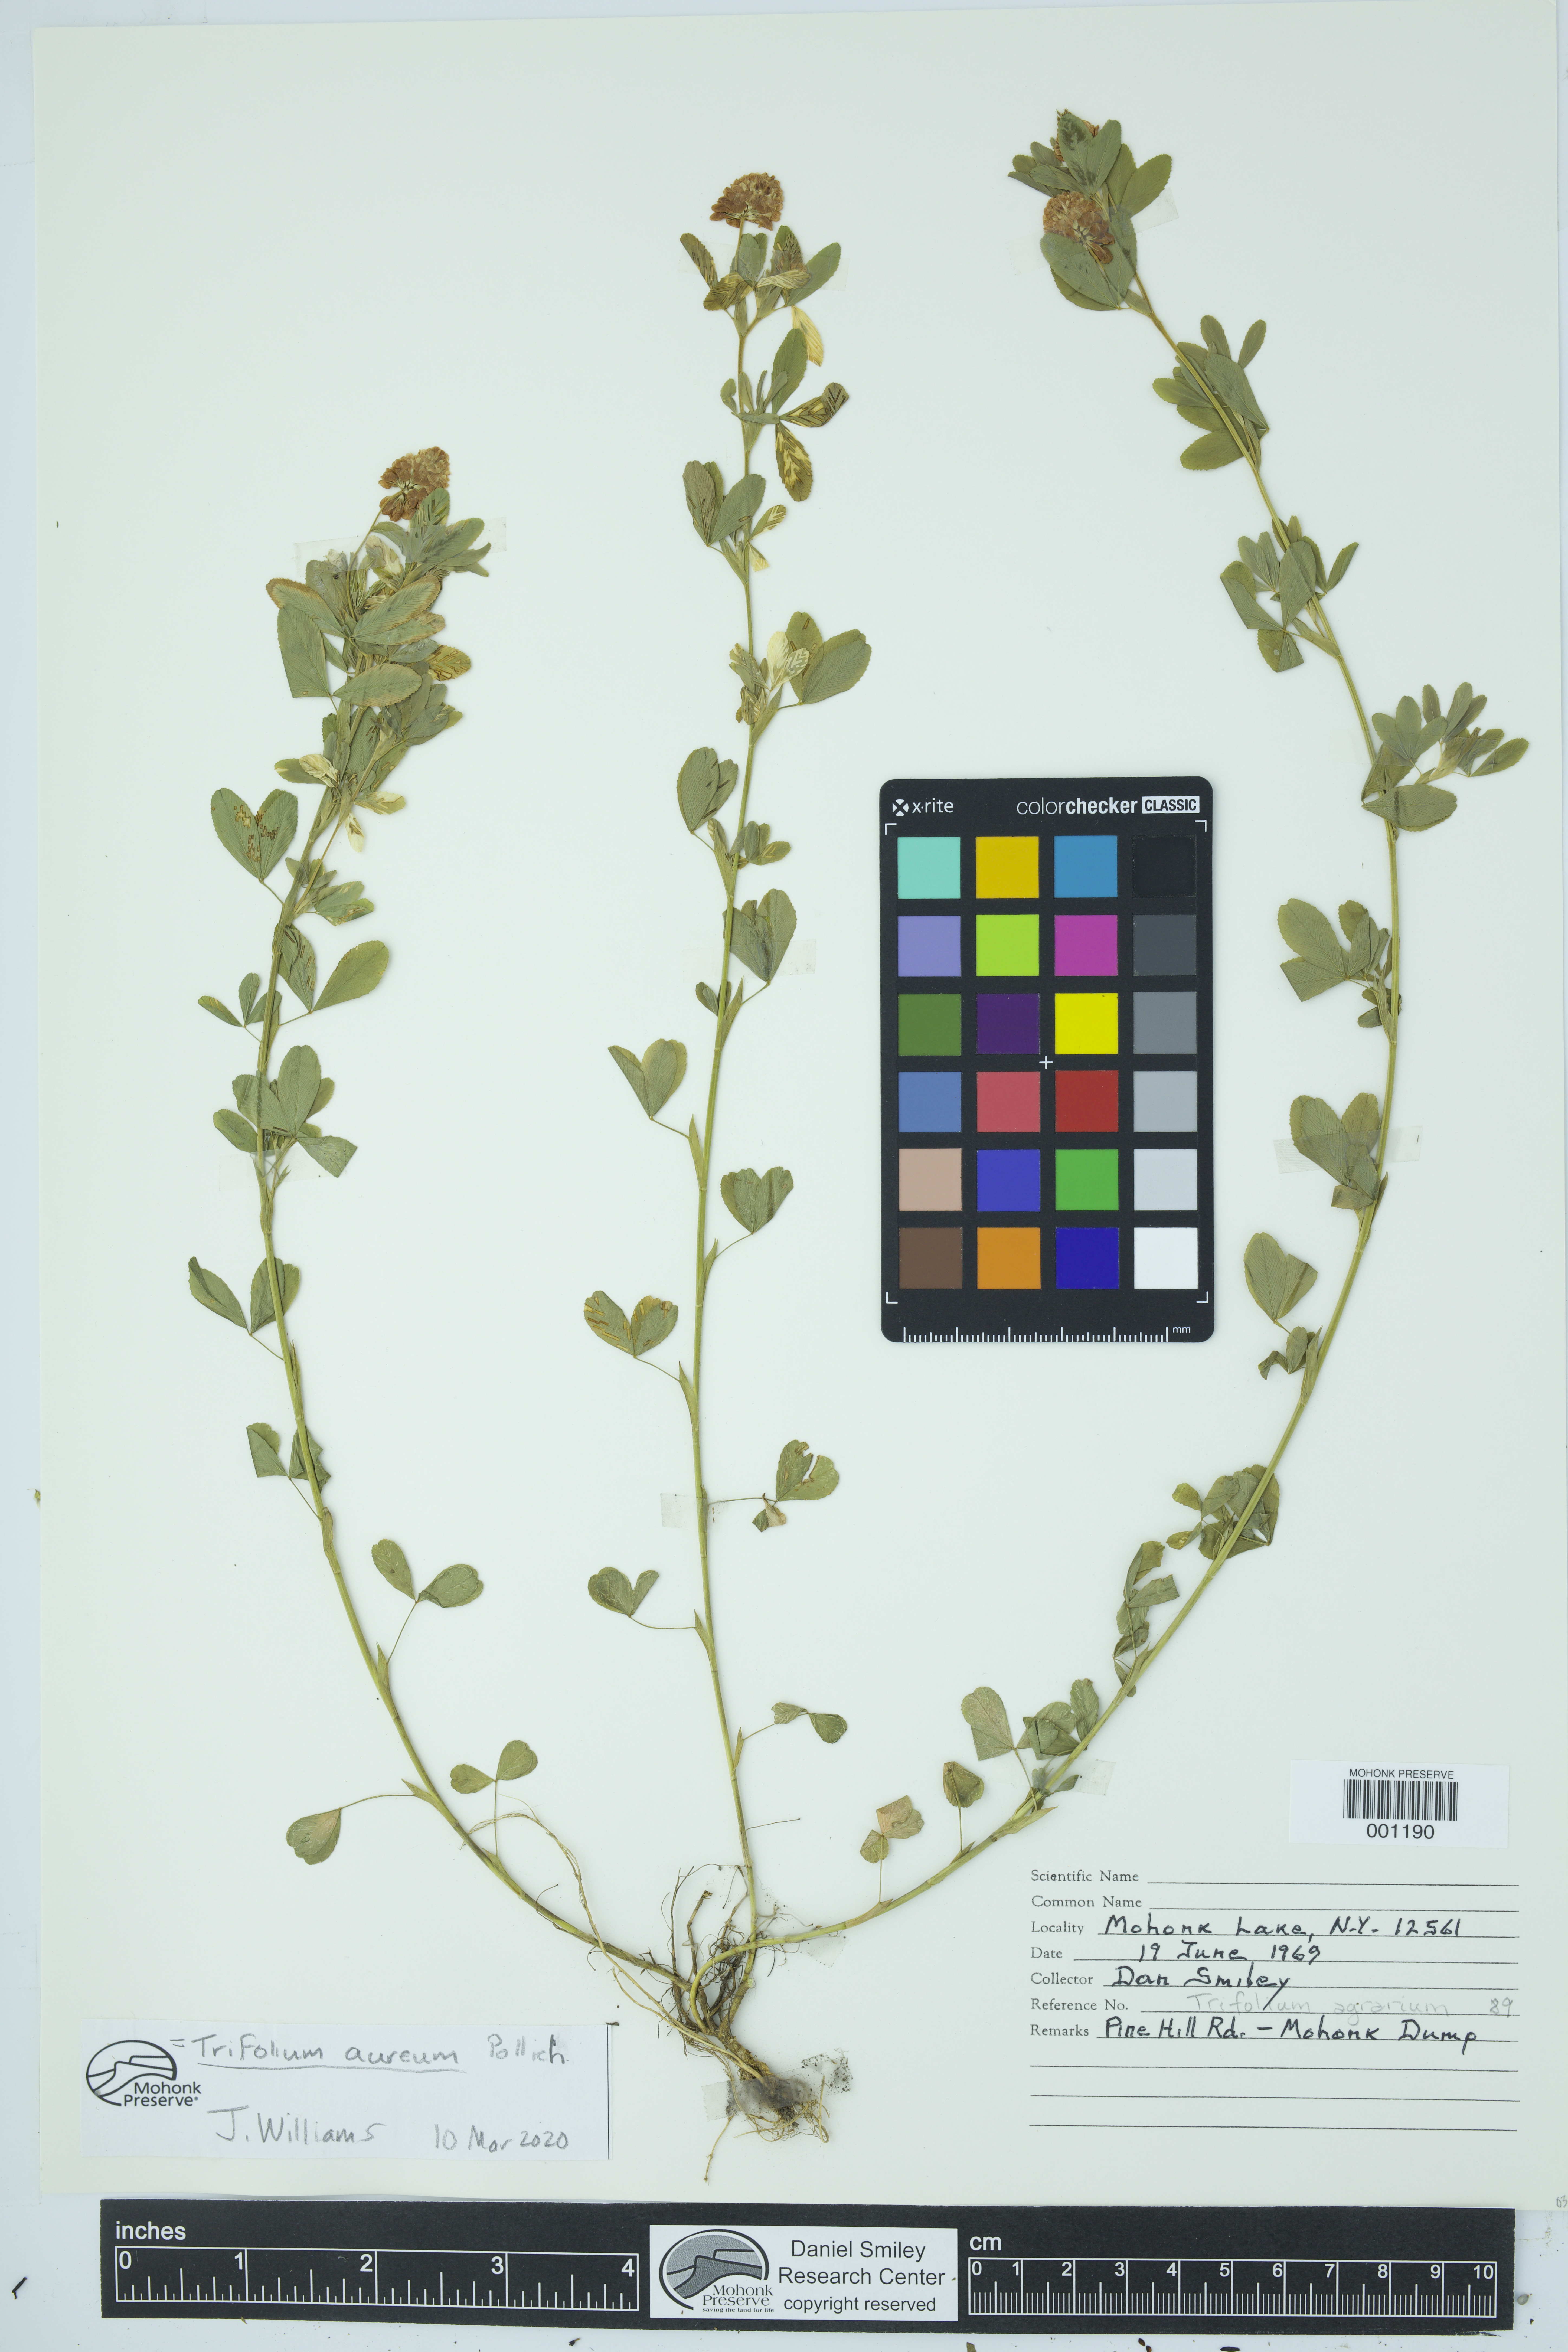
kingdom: Plantae
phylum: Tracheophyta
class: Magnoliopsida
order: Fabales
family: Fabaceae
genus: Trifolium
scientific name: Trifolium aureum
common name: Golden clover
